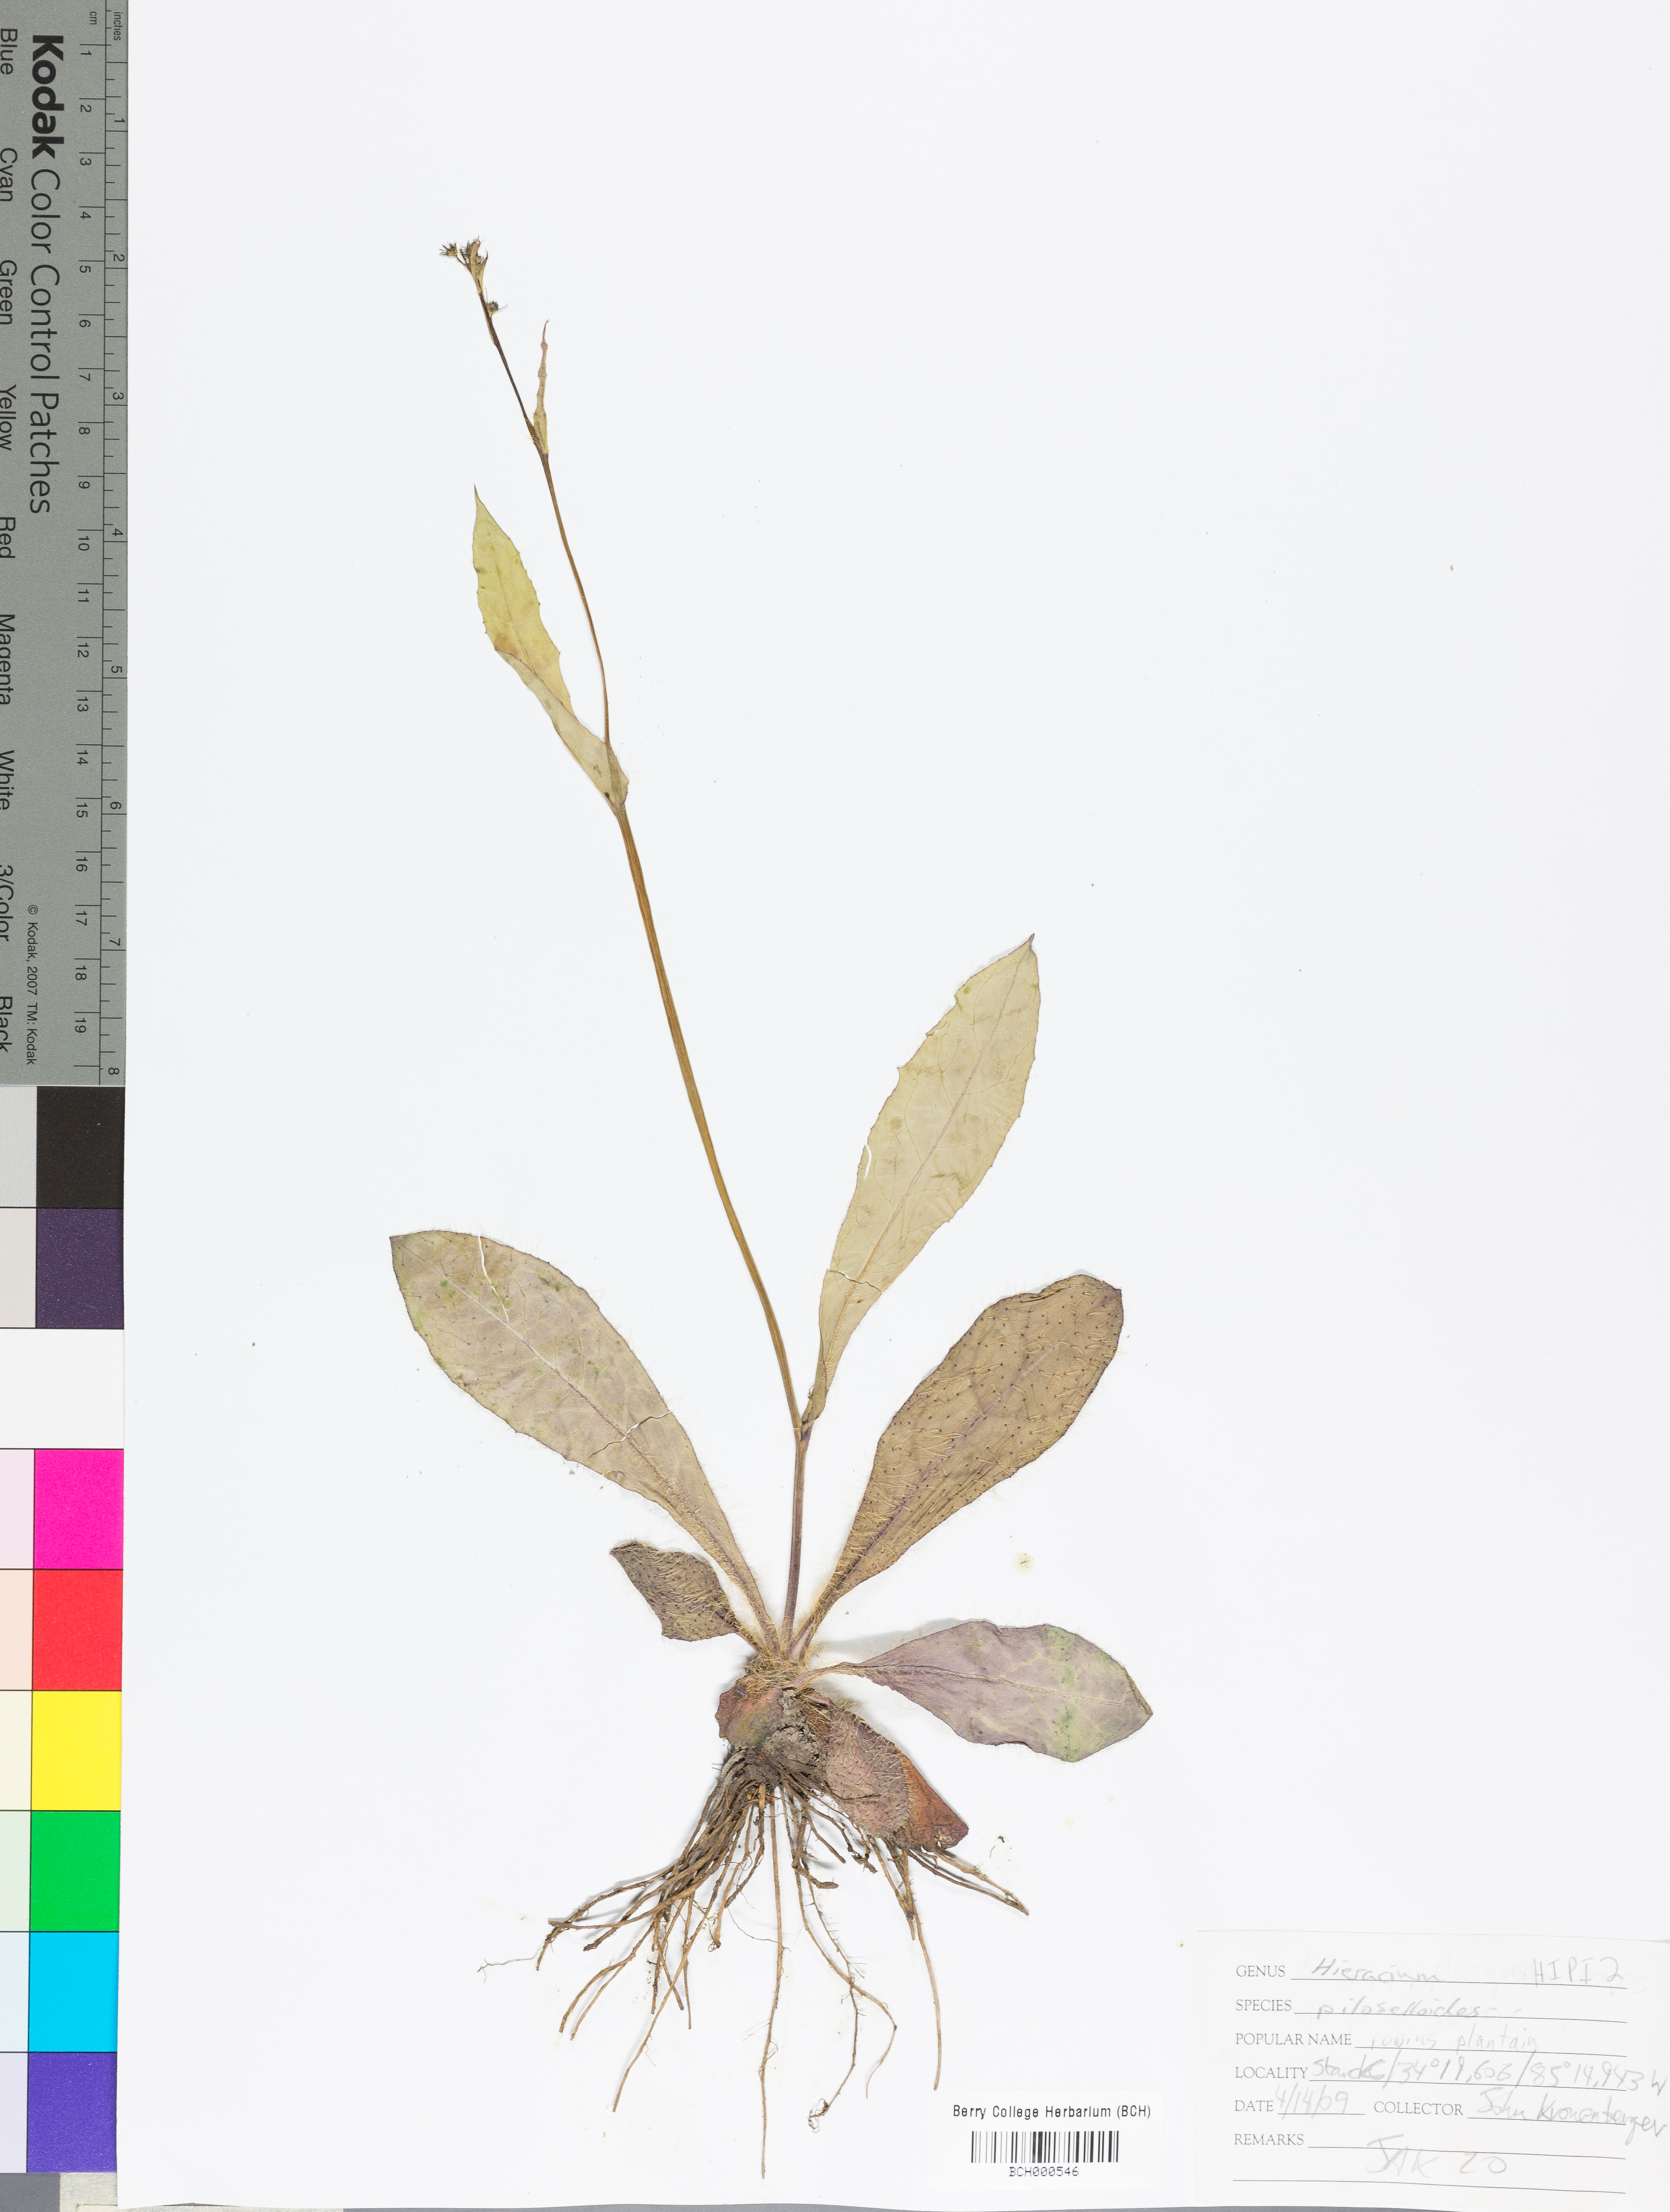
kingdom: Plantae
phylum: Tracheophyta
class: Magnoliopsida
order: Asterales
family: Asteraceae
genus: Pilosella
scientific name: Pilosella piloselloides
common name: Glaucous king-devil
